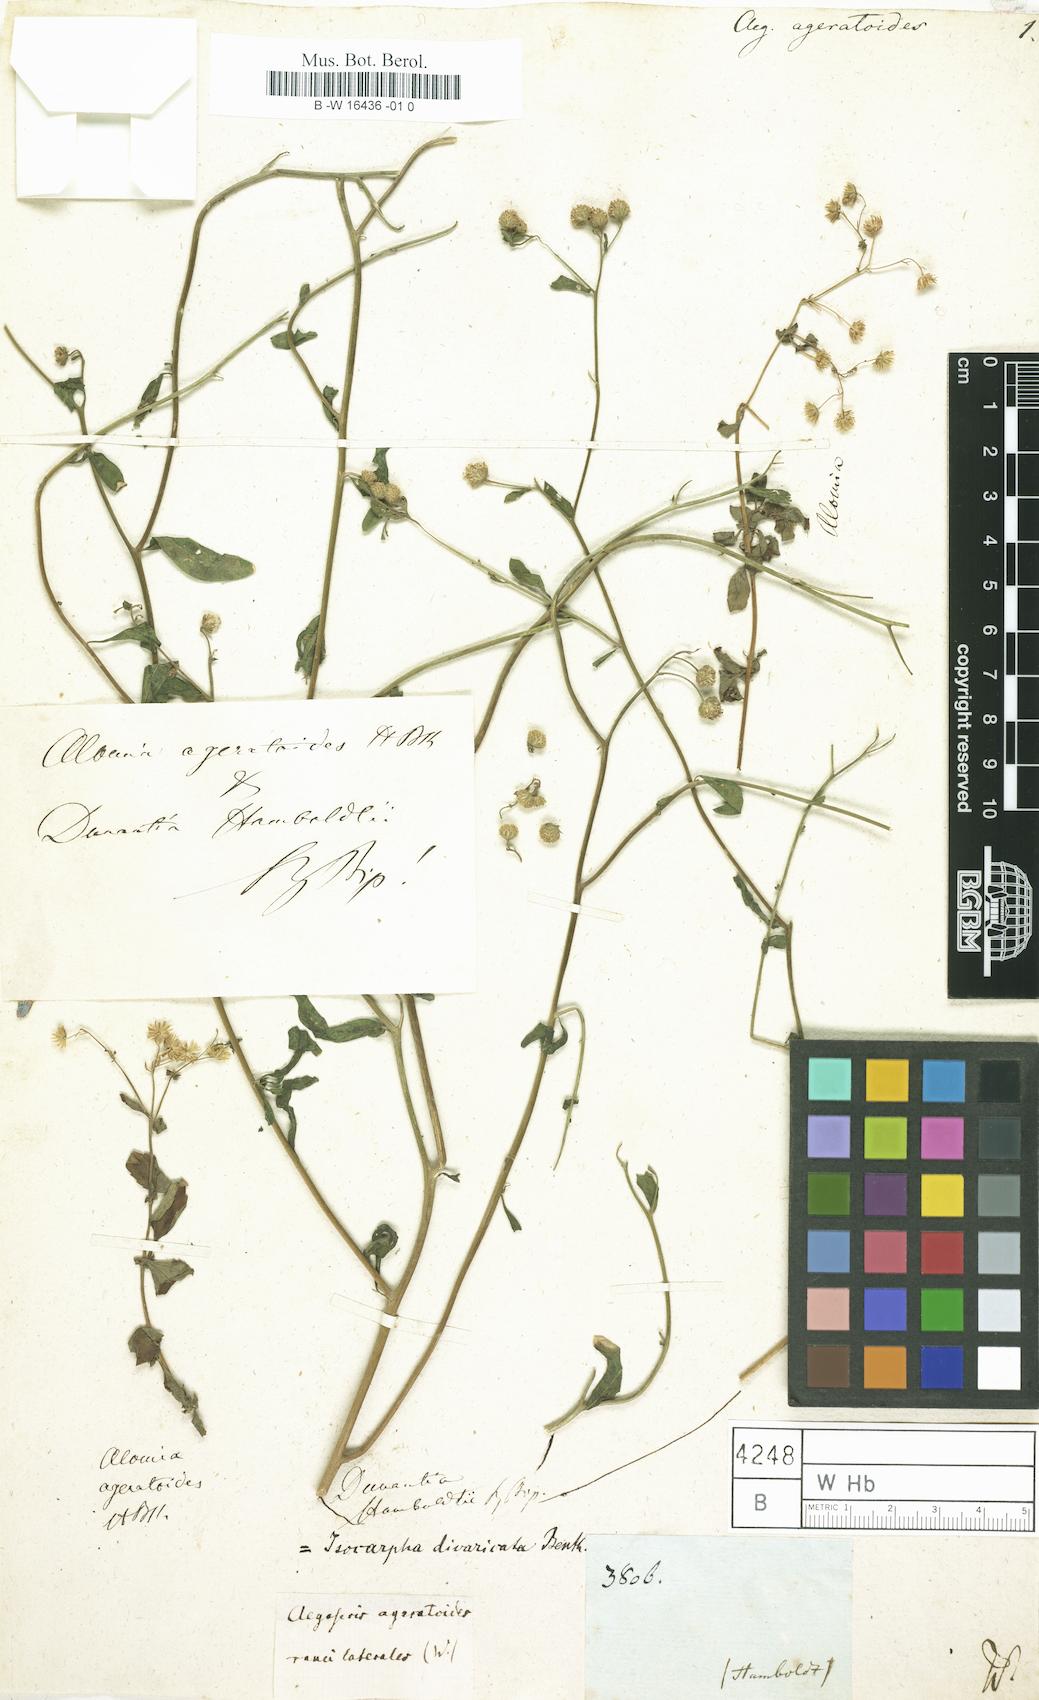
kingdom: Plantae
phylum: Tracheophyta
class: Magnoliopsida
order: Asterales
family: Asteraceae
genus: Crepis
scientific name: Crepis
